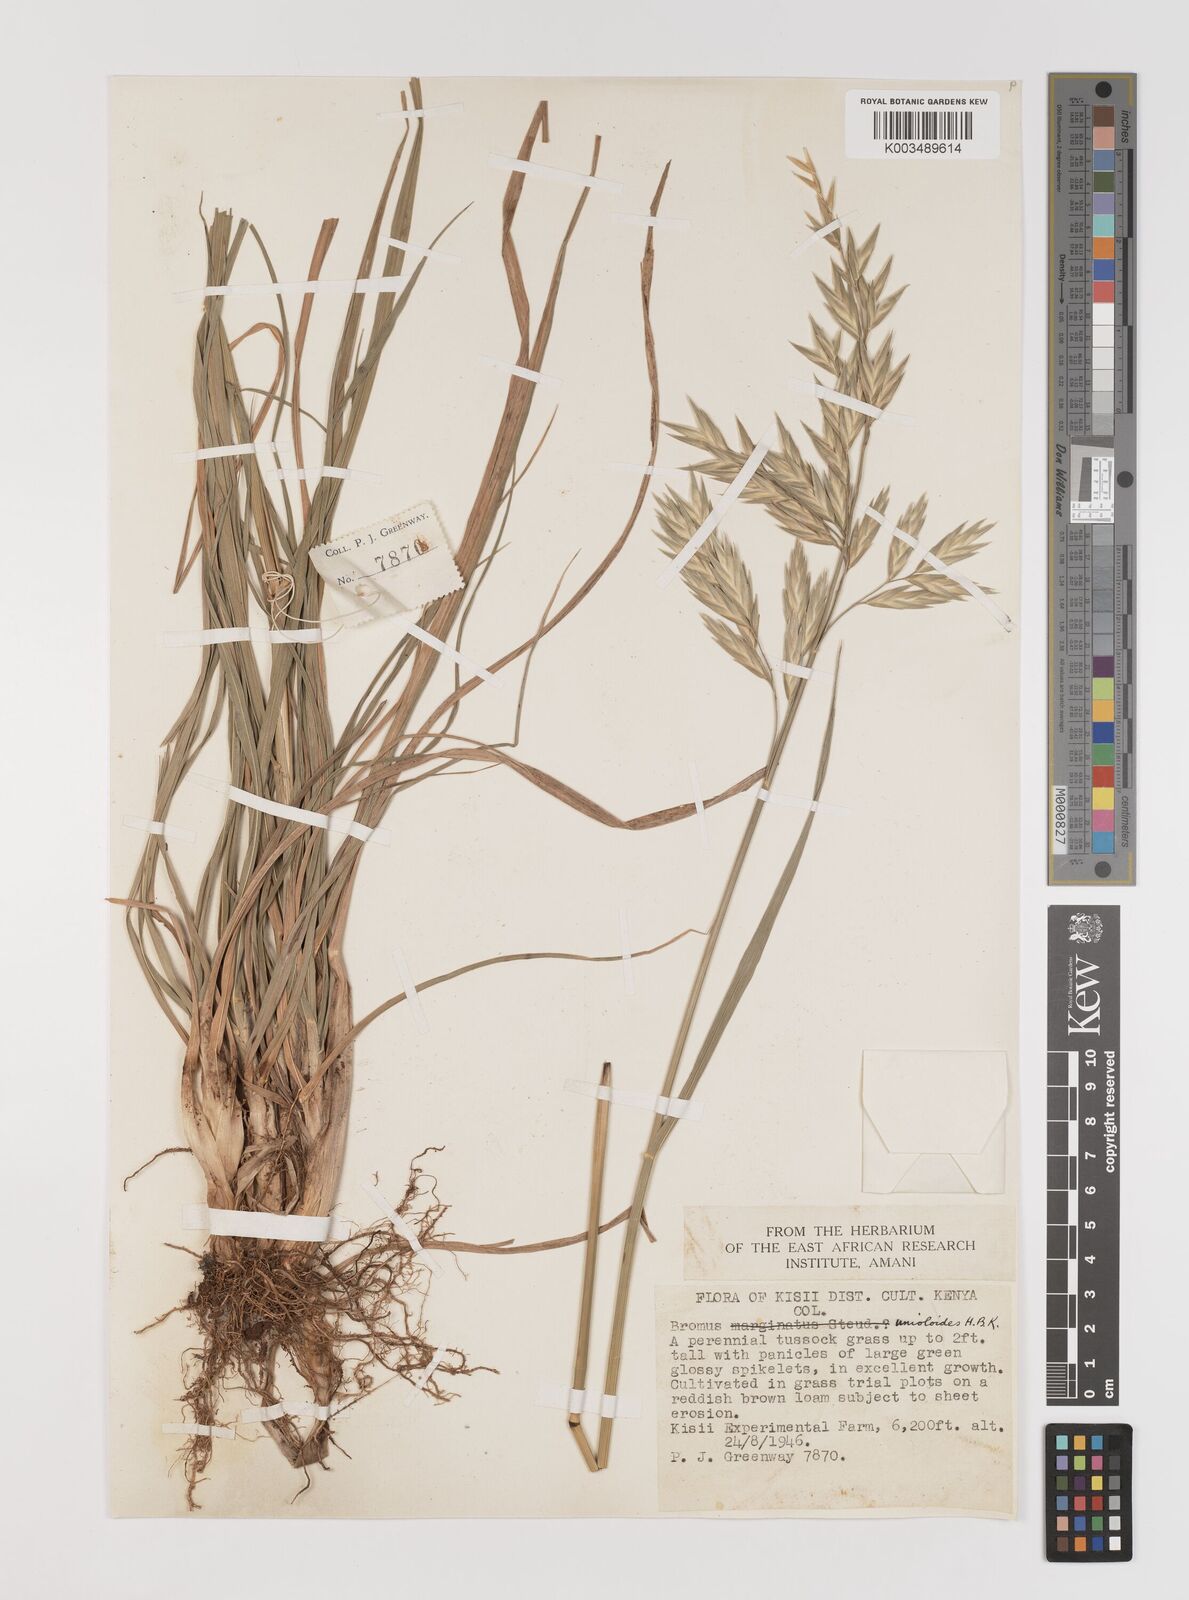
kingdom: Plantae
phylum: Tracheophyta
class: Liliopsida
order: Poales
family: Poaceae
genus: Bromus
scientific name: Bromus catharticus
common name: Rescuegrass
